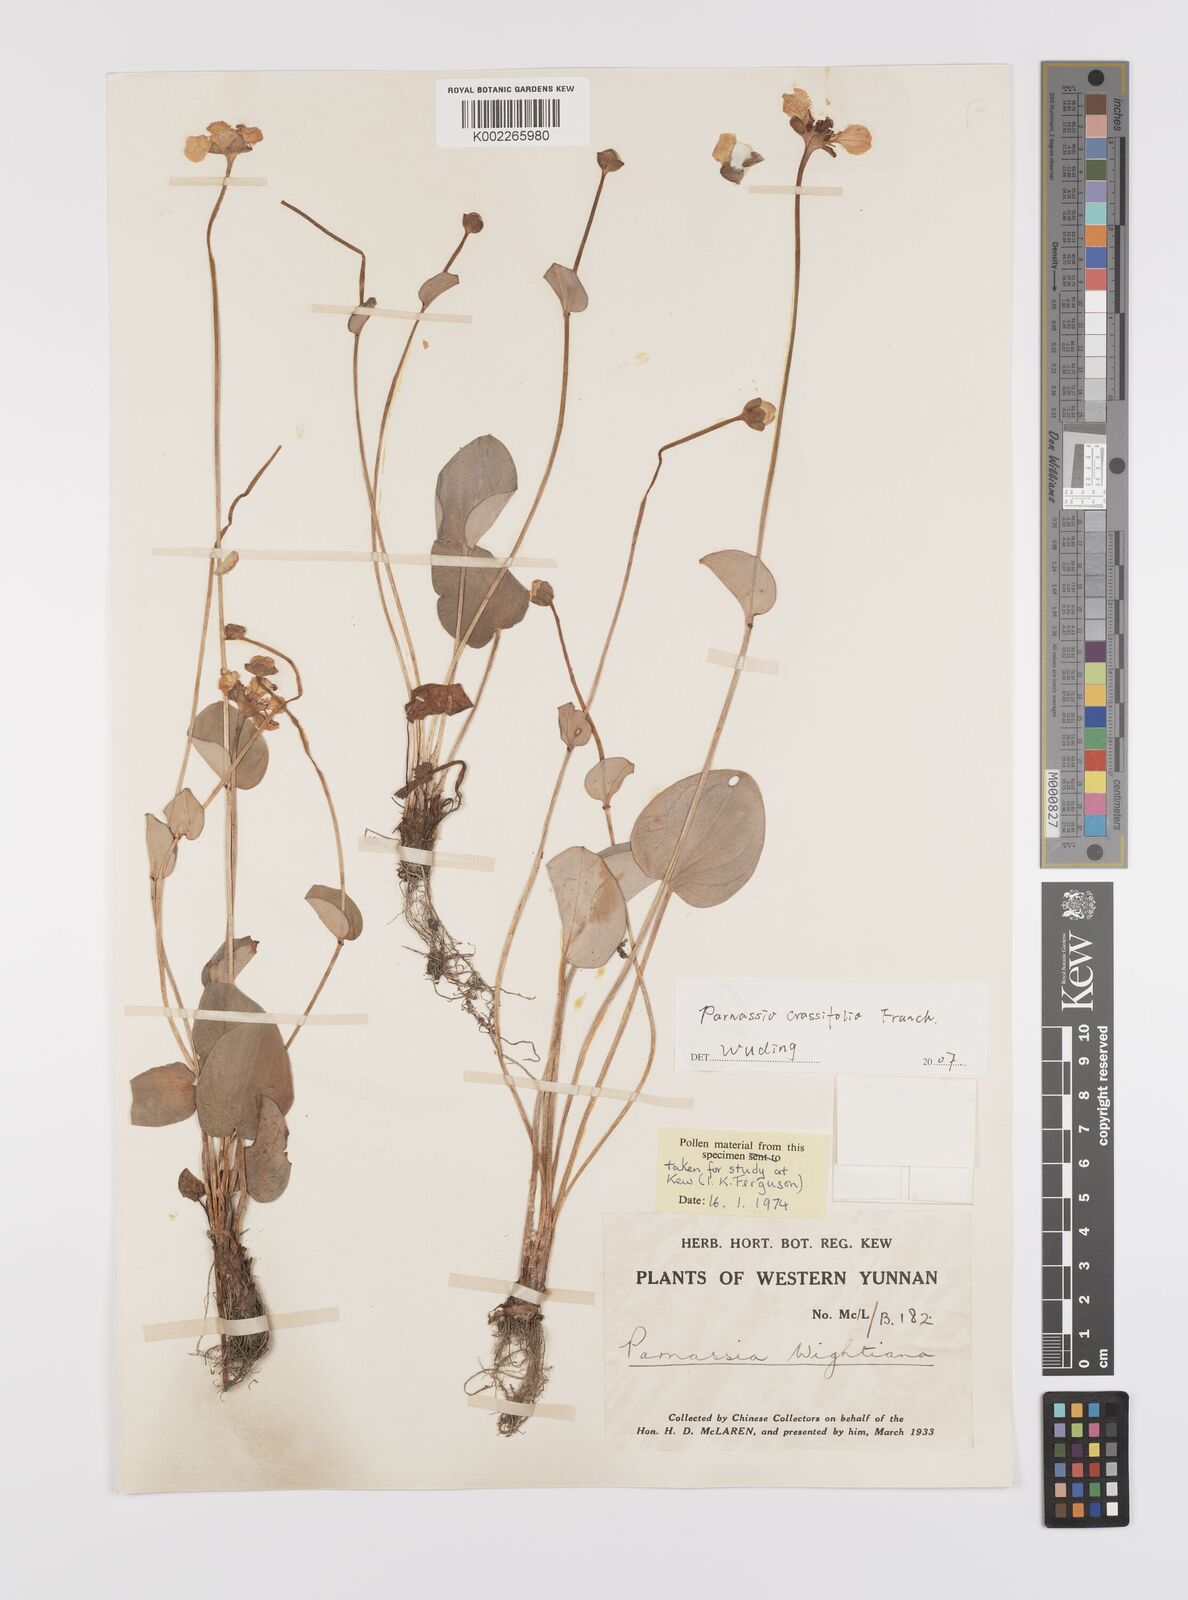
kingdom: Plantae
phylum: Tracheophyta
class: Magnoliopsida
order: Celastrales
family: Parnassiaceae
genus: Parnassia
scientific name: Parnassia crassifolia
